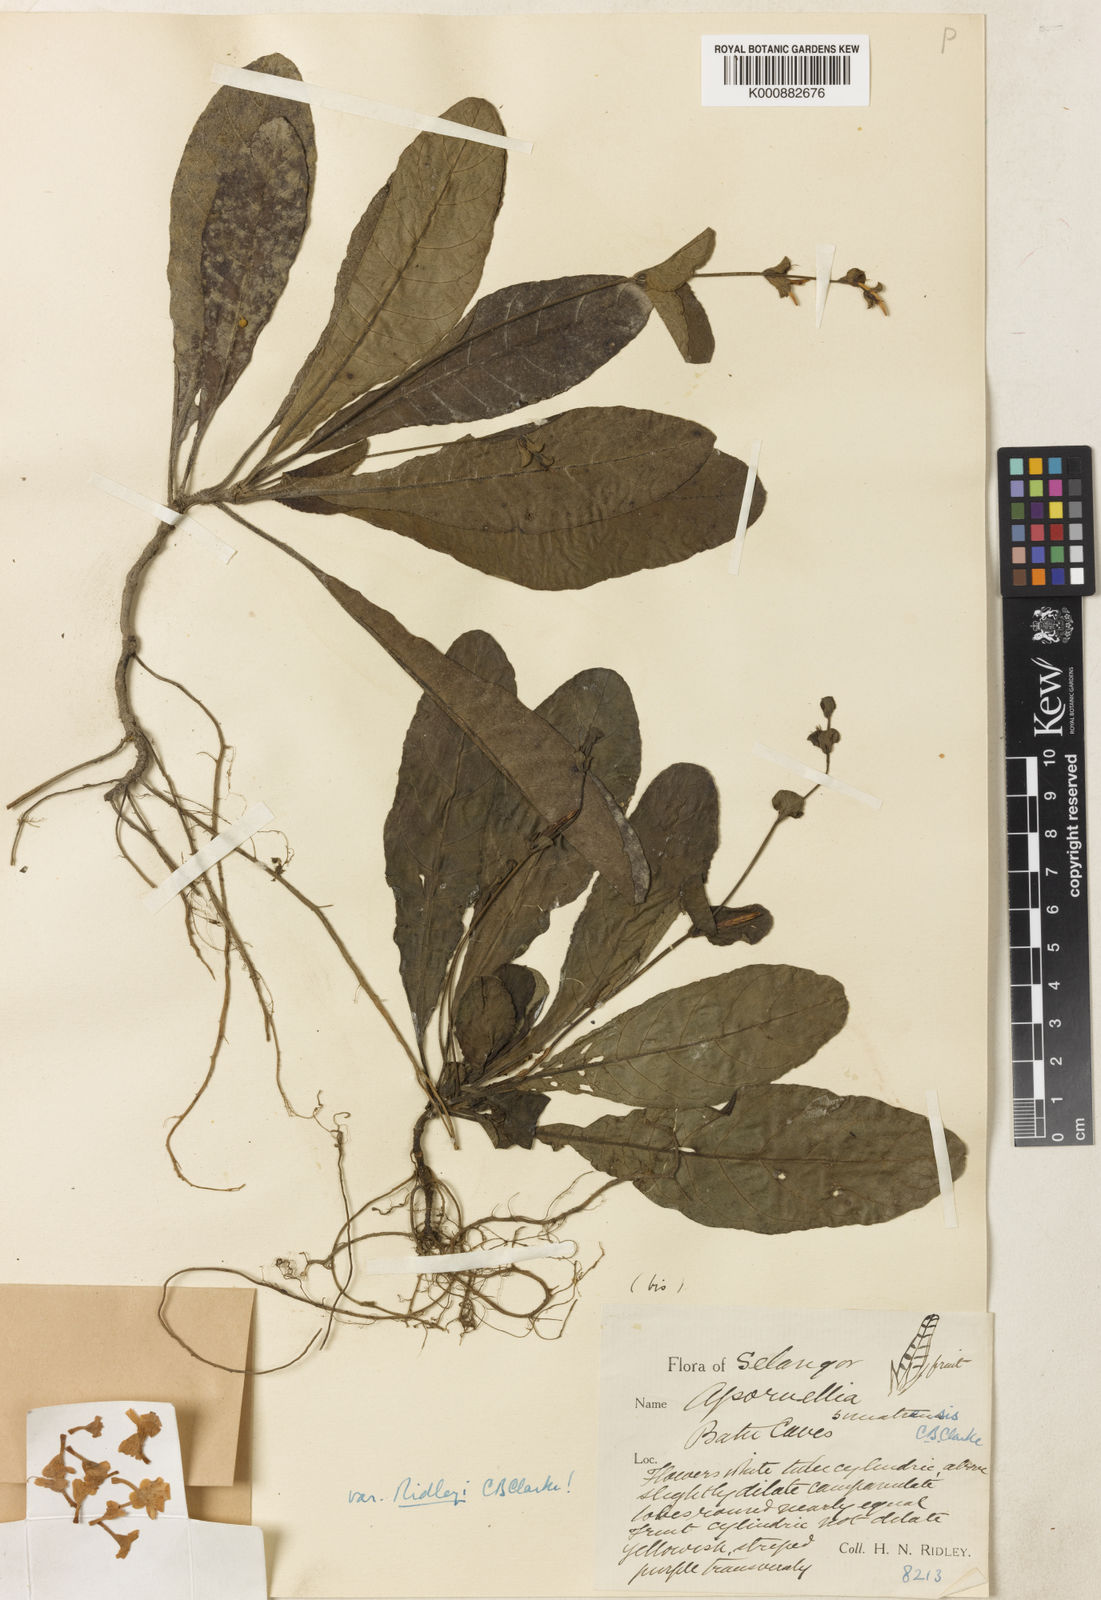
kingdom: Plantae
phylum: Tracheophyta
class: Magnoliopsida
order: Lamiales
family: Acanthaceae
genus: Pararuellia
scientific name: Pararuellia sumatrensis
